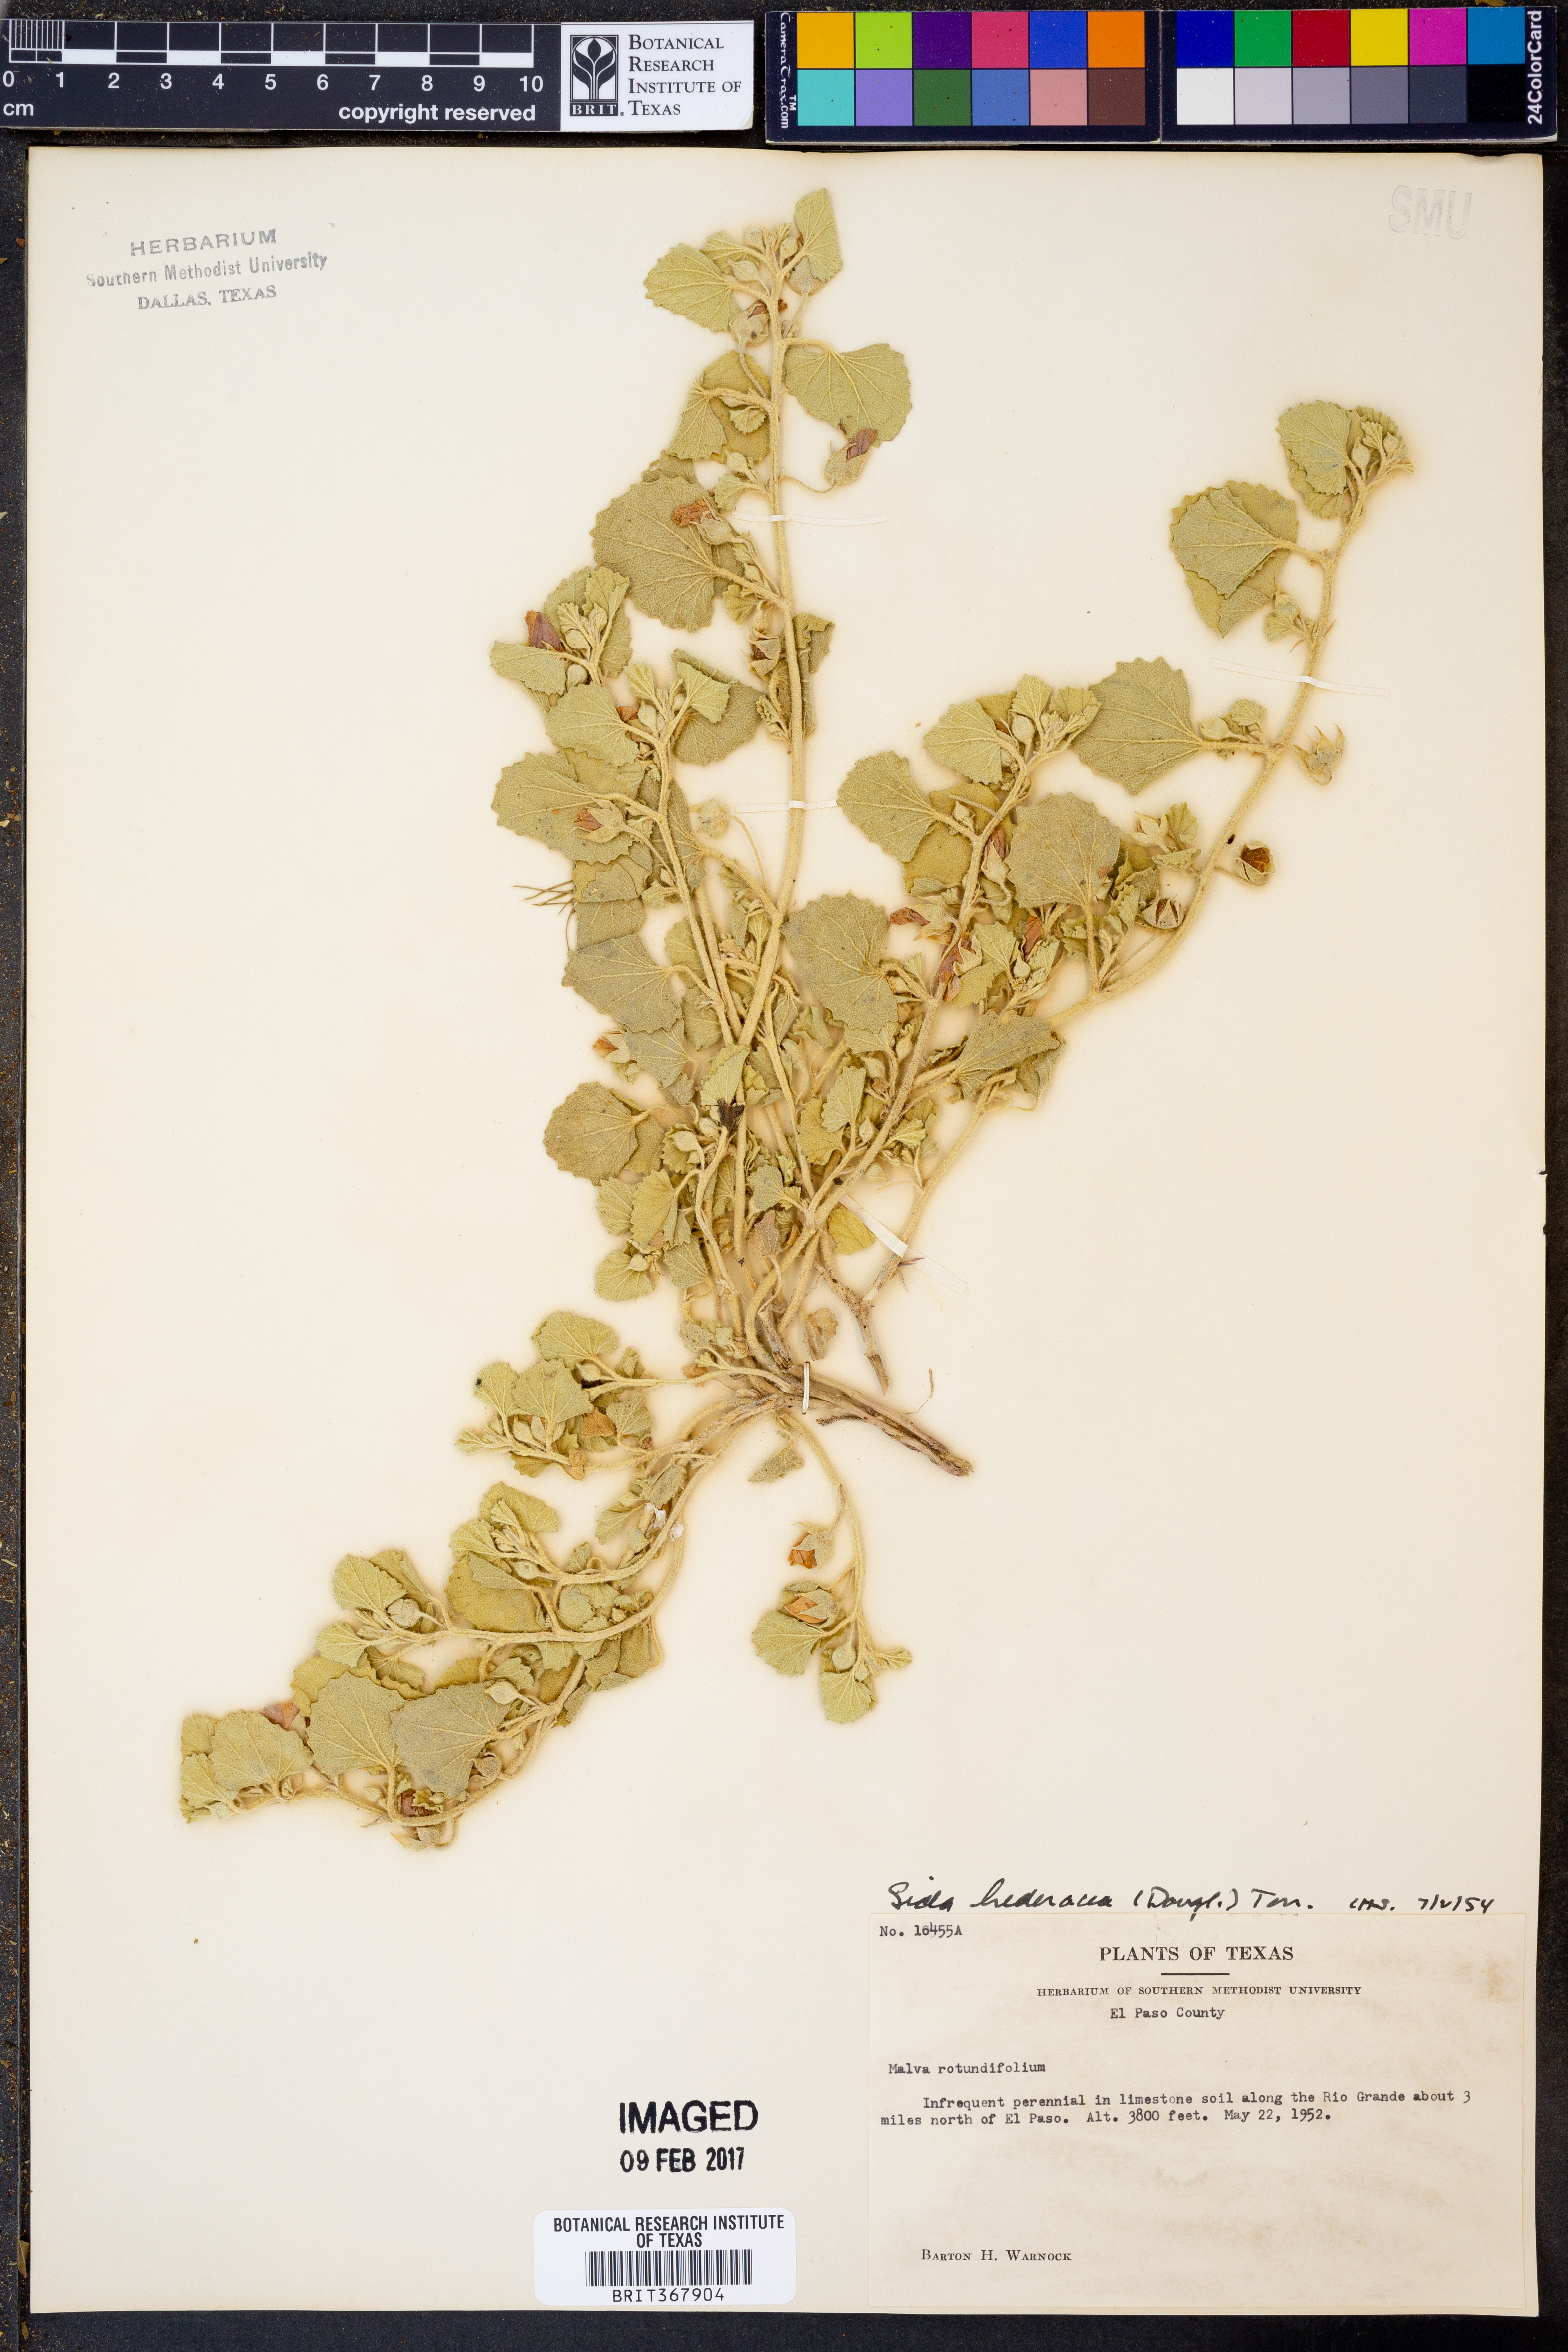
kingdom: Plantae
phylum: Tracheophyta
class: Magnoliopsida
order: Malvales
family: Malvaceae
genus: Malvella
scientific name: Malvella leprosa
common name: Alkali-mallow
